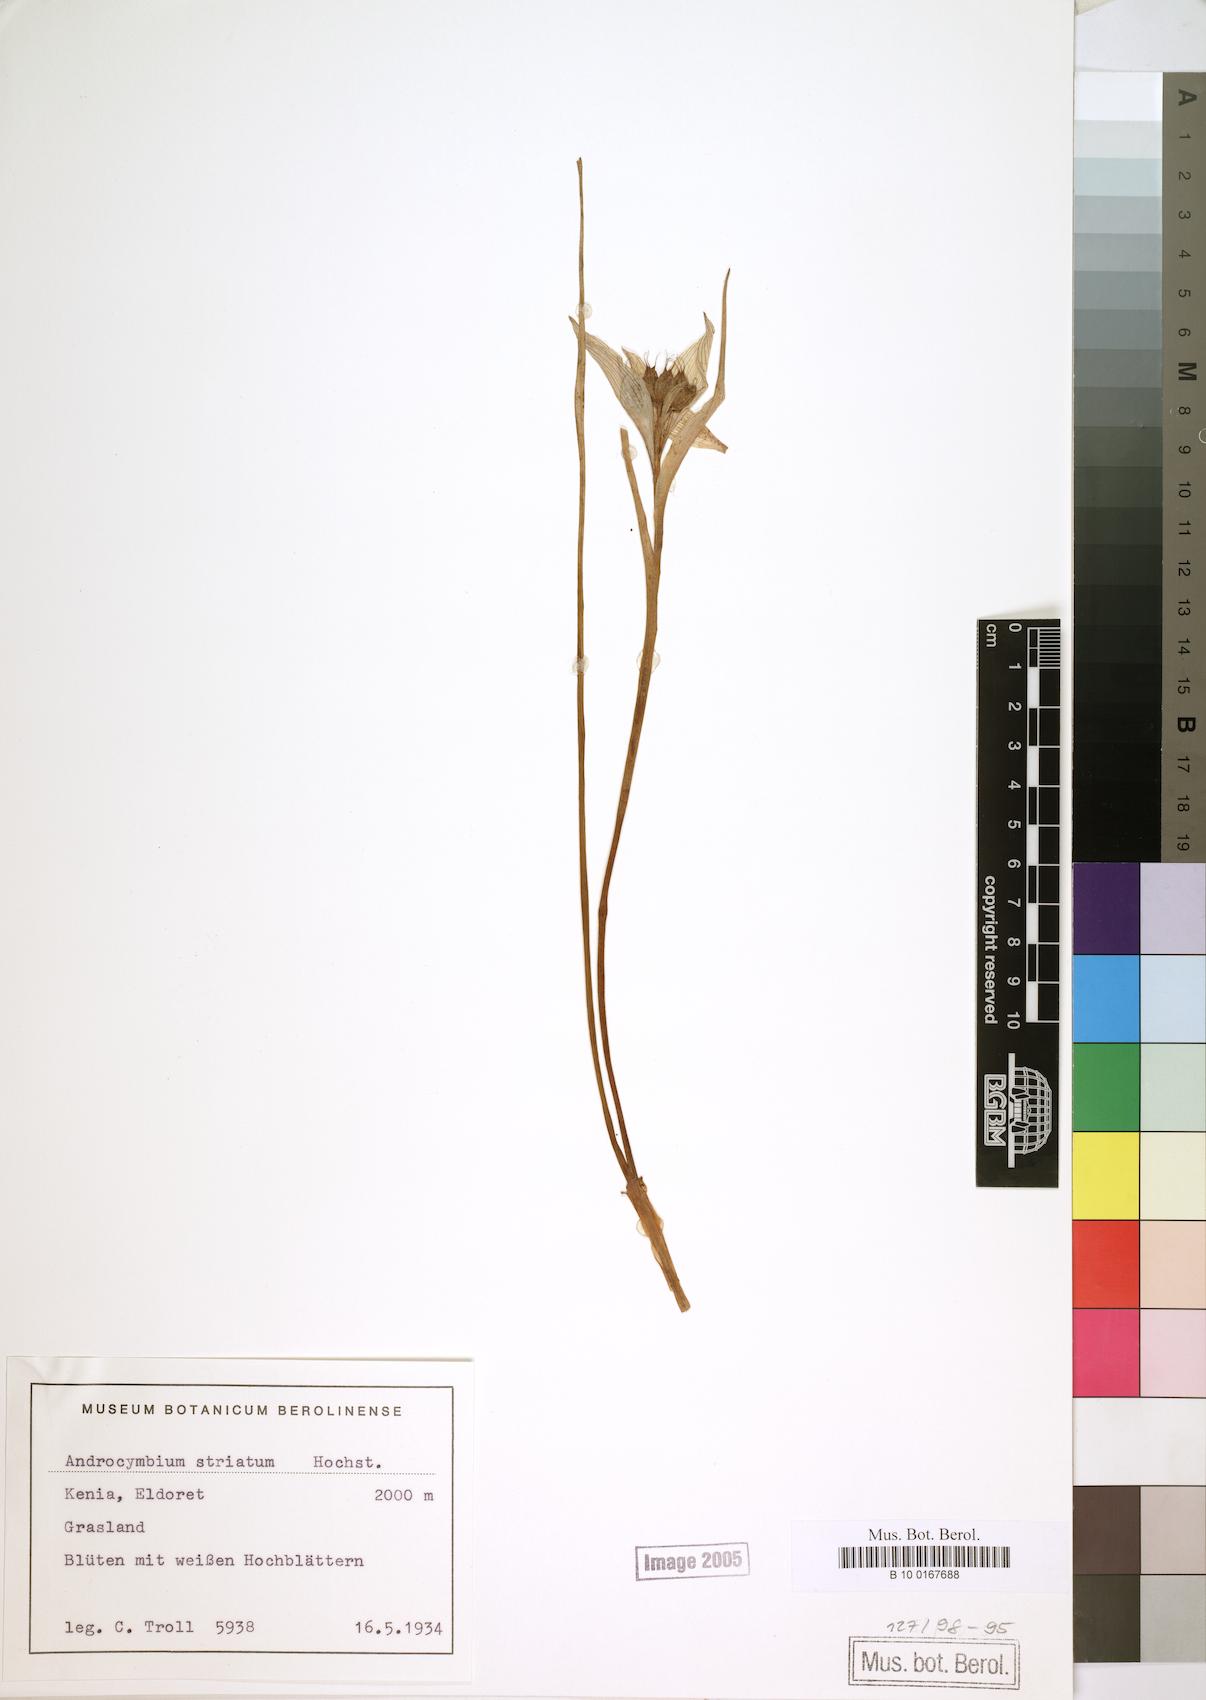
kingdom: Plantae
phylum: Tracheophyta
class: Liliopsida
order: Liliales
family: Colchicaceae
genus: Colchicum
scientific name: Colchicum striatum
